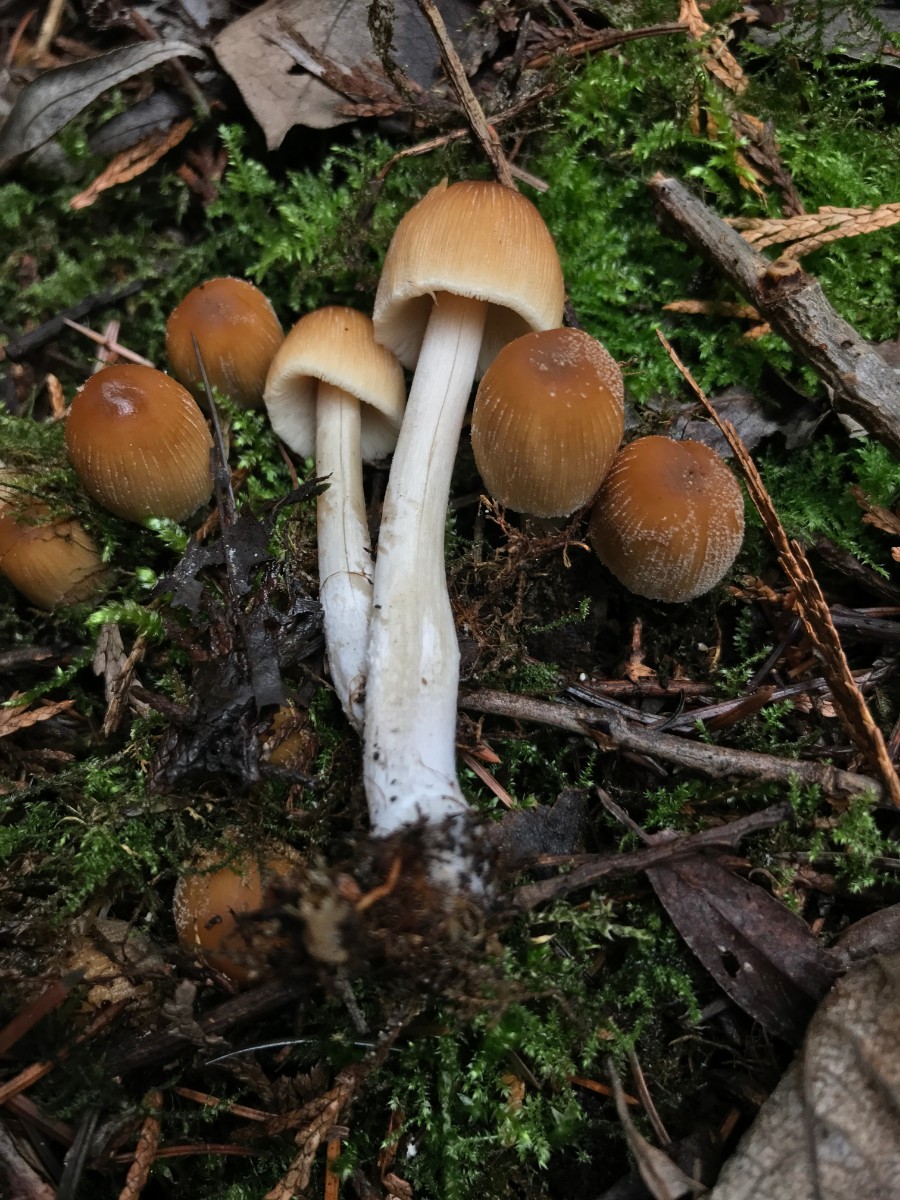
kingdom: Fungi
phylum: Basidiomycota
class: Agaricomycetes
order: Agaricales
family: Psathyrellaceae
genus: Coprinellus
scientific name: Coprinellus micaceus
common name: glimmer-blækhat
